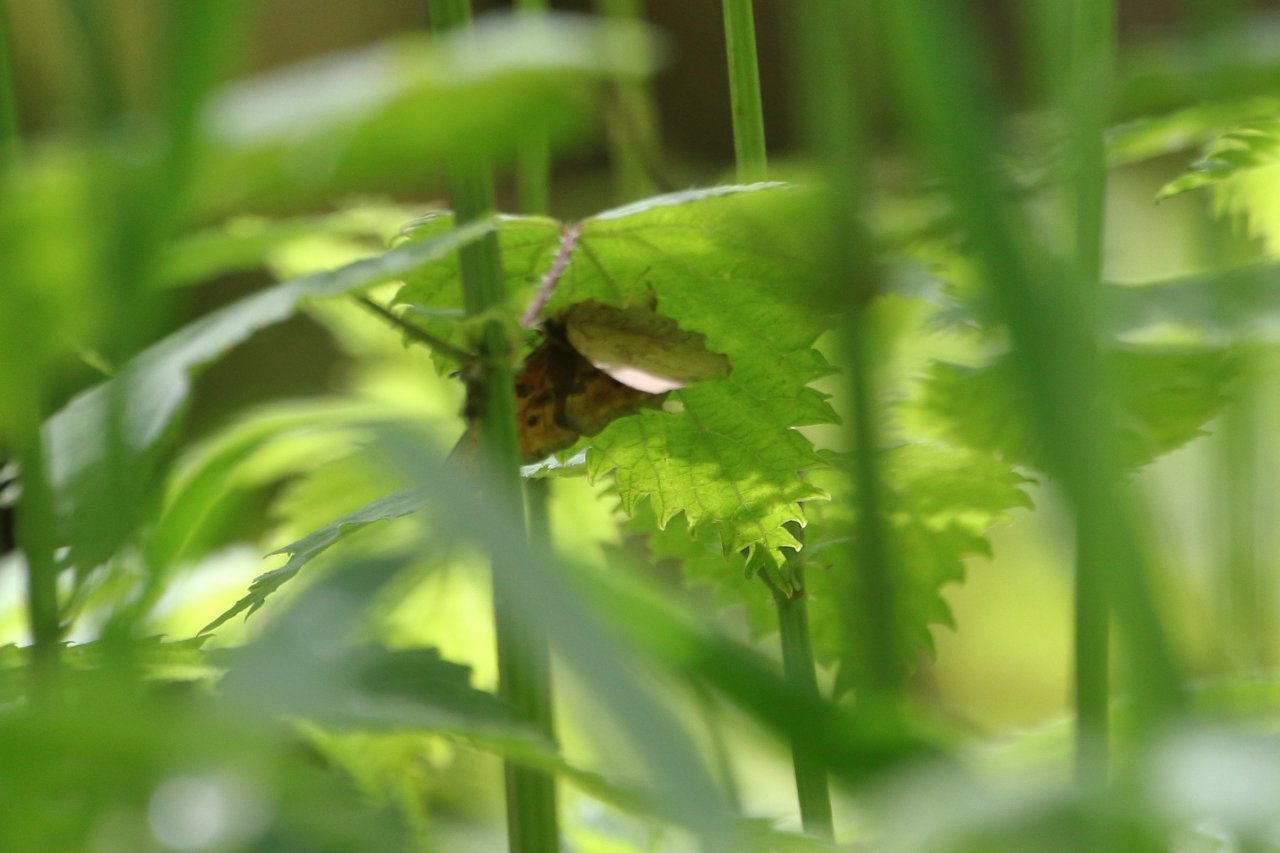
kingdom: Animalia
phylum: Arthropoda
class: Insecta
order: Lepidoptera
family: Nymphalidae
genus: Polygonia
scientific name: Polygonia satyrus
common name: Satyr Comma
